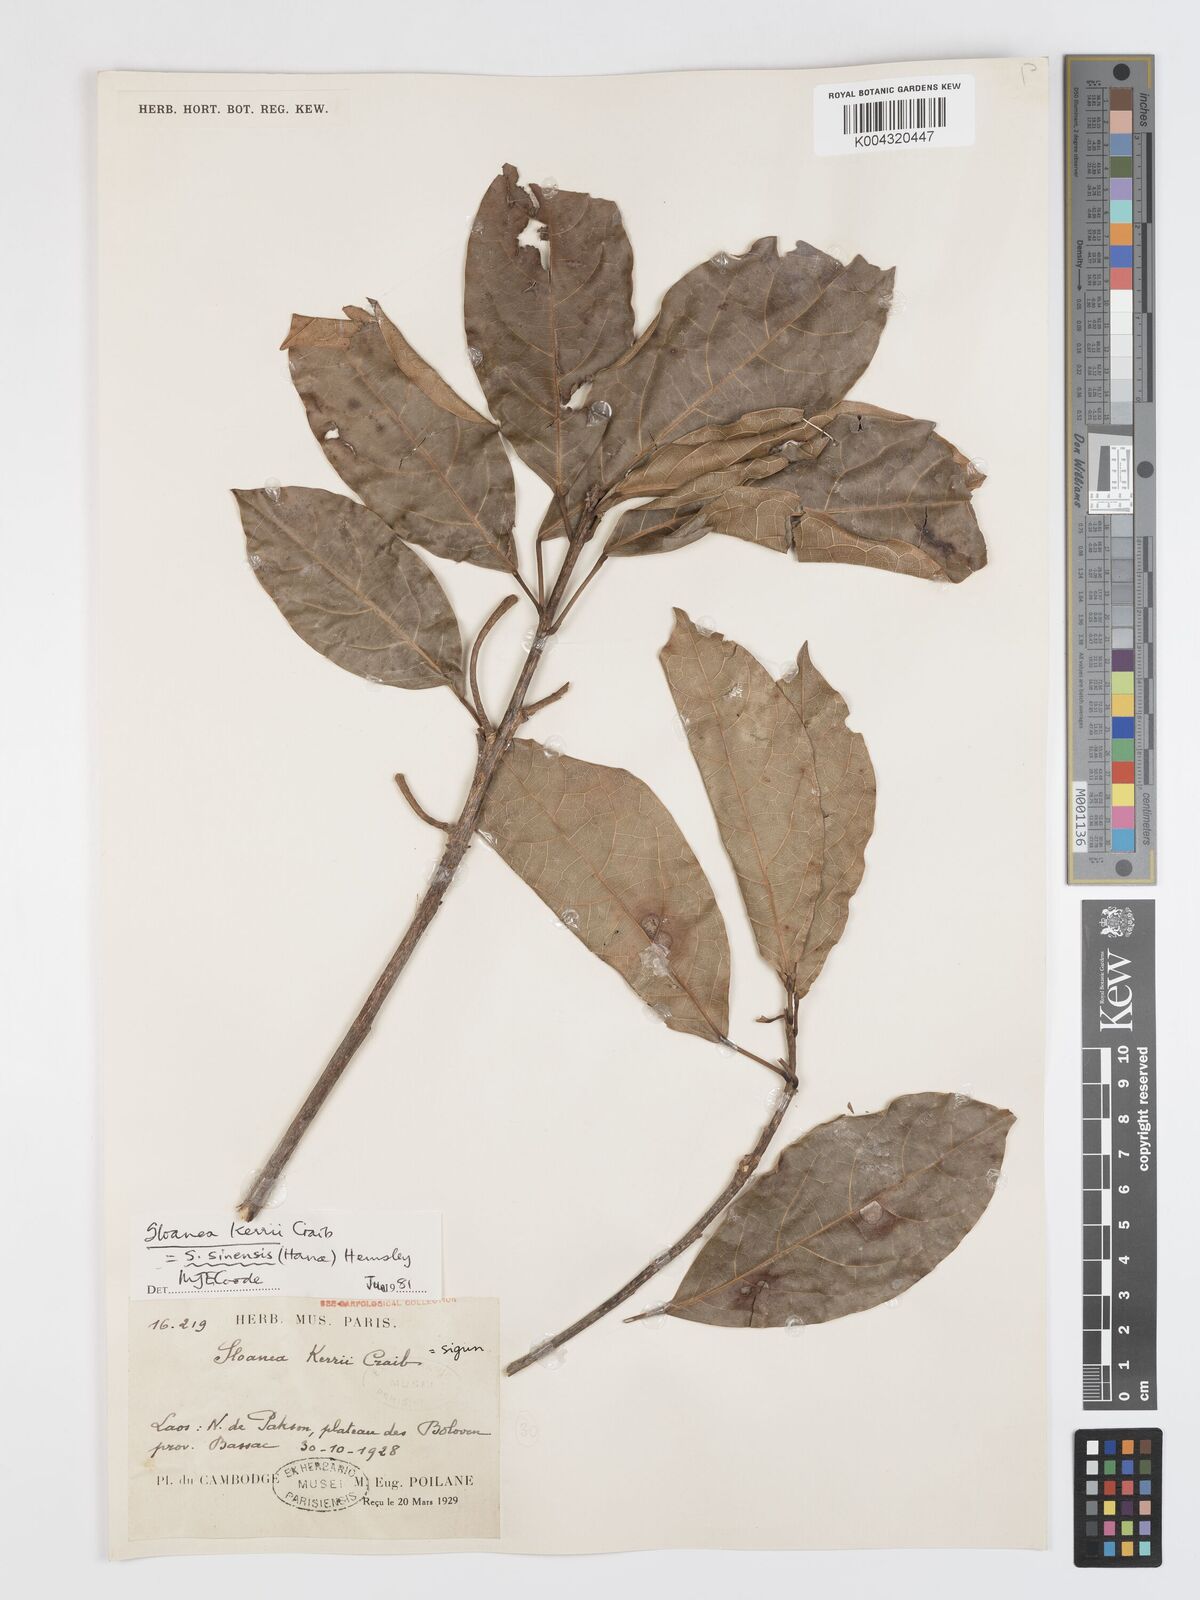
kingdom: Plantae
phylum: Tracheophyta
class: Magnoliopsida
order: Oxalidales
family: Elaeocarpaceae
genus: Sloanea
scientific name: Sloanea sinensis
